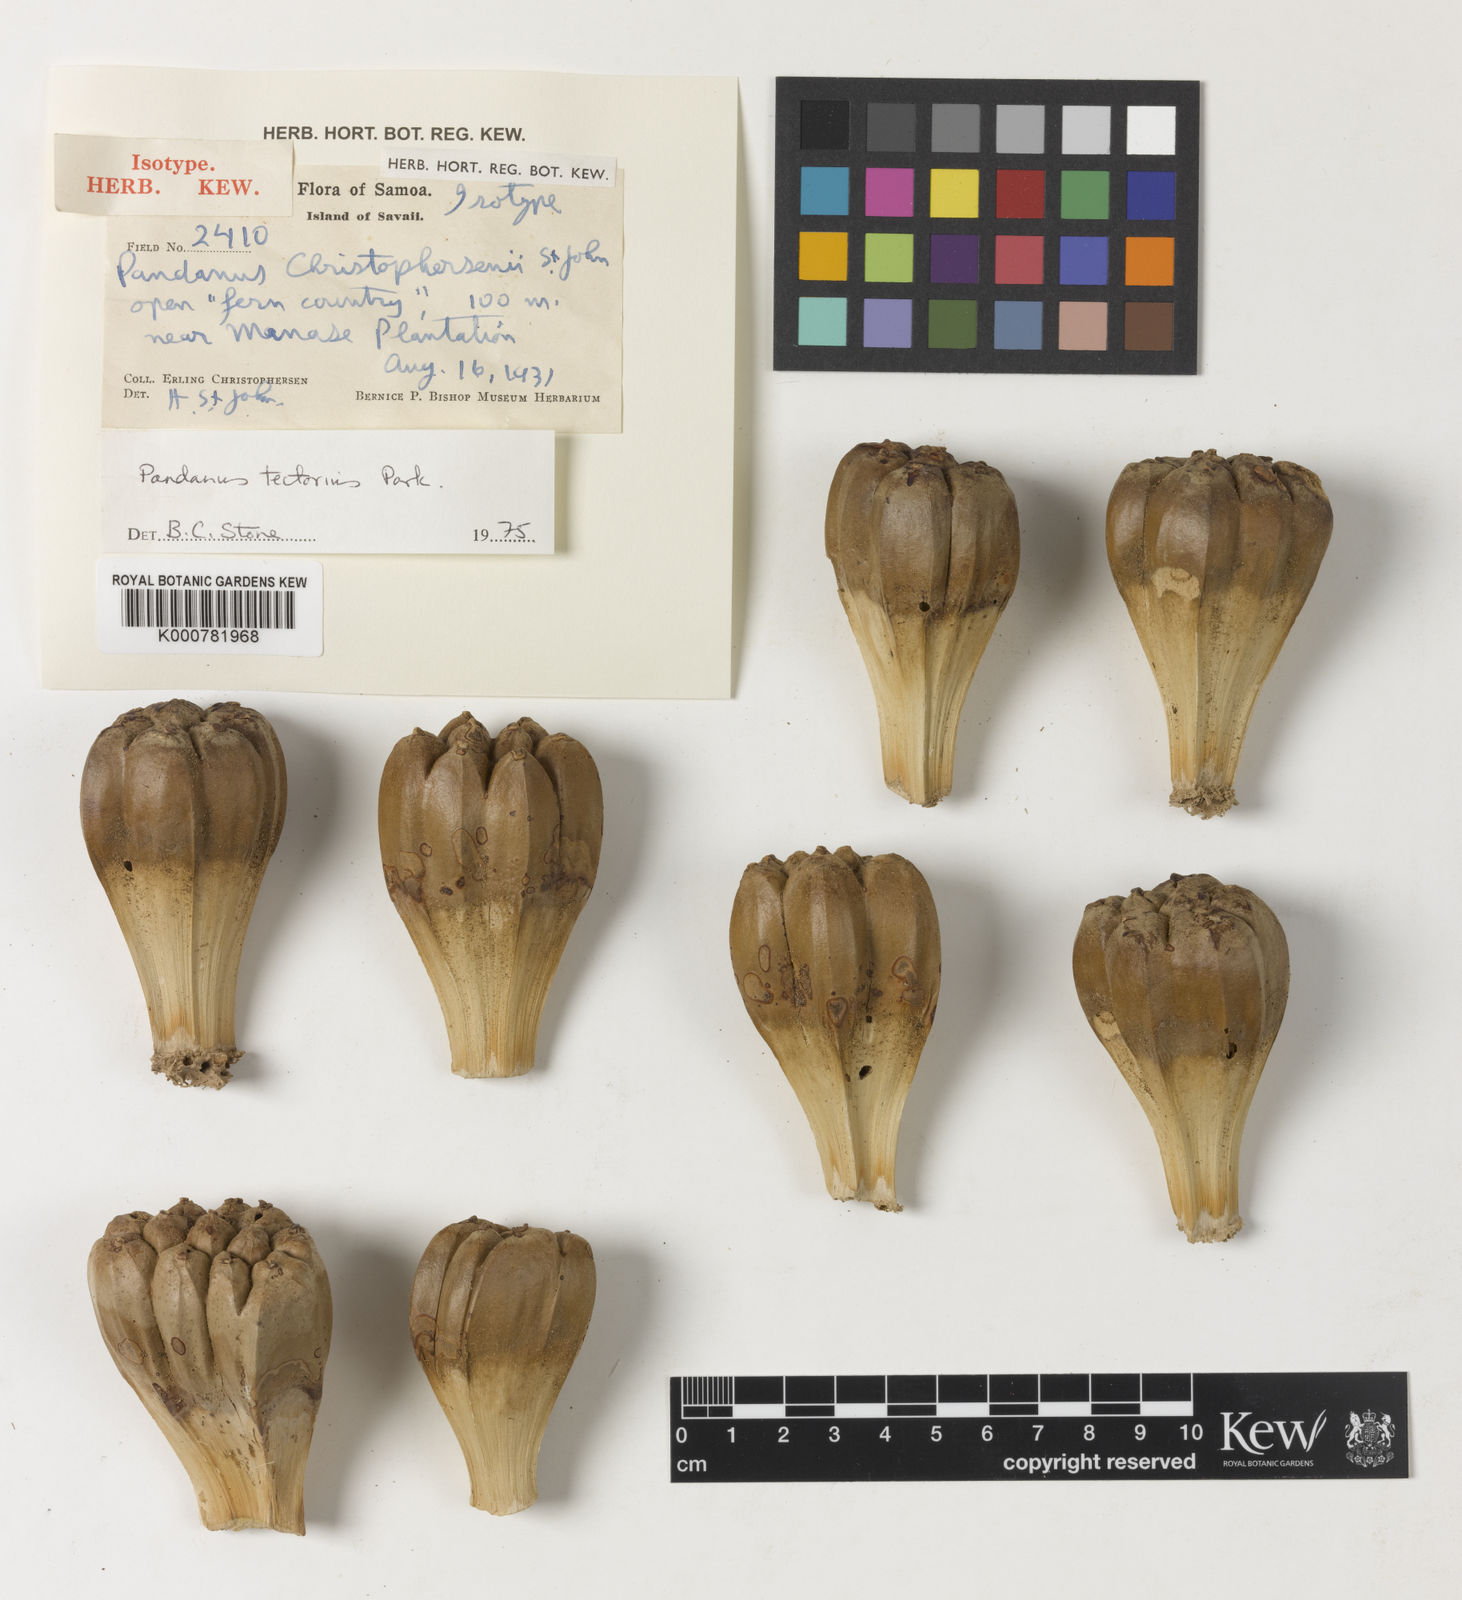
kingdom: Plantae
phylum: Tracheophyta
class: Liliopsida
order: Pandanales
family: Pandanaceae
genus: Pandanus
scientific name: Pandanus
